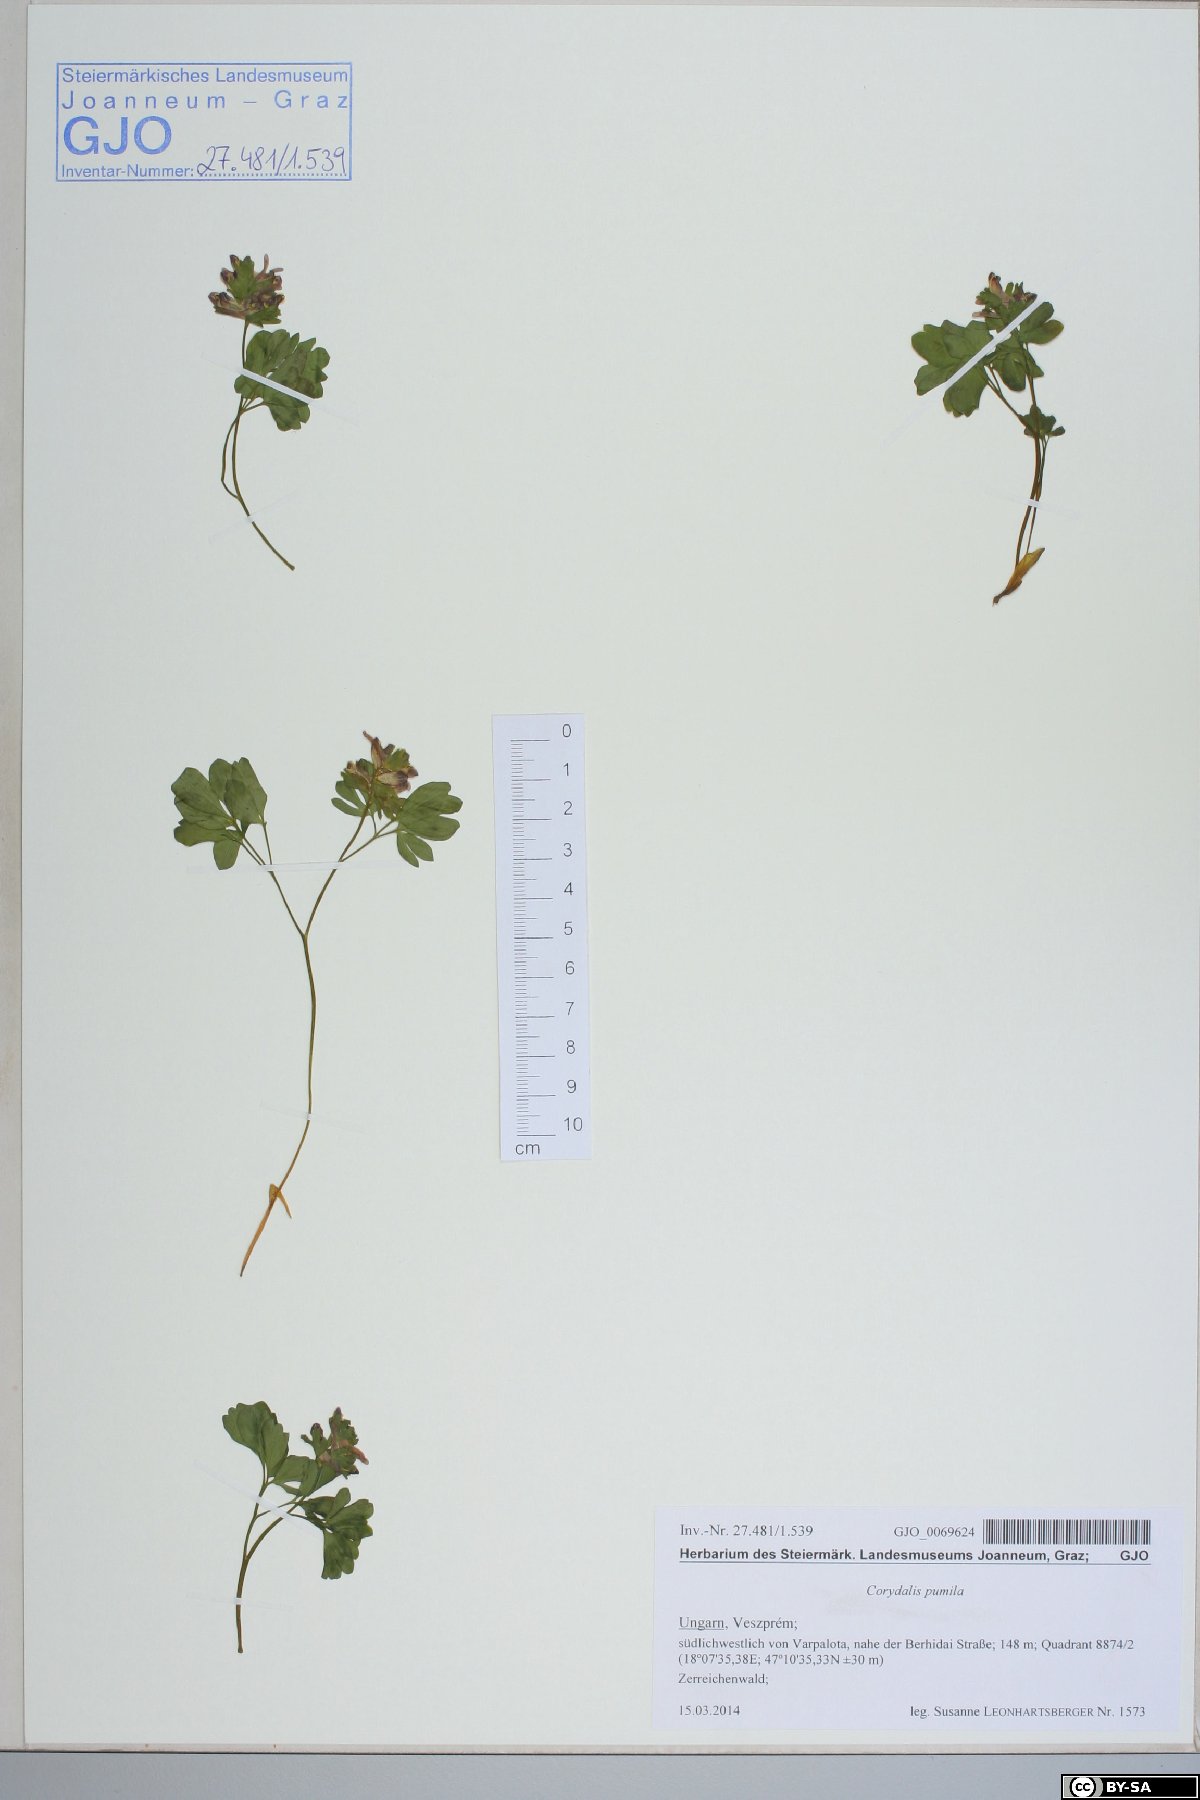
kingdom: Plantae
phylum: Tracheophyta
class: Magnoliopsida
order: Ranunculales
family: Papaveraceae
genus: Corydalis
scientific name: Corydalis pumila
